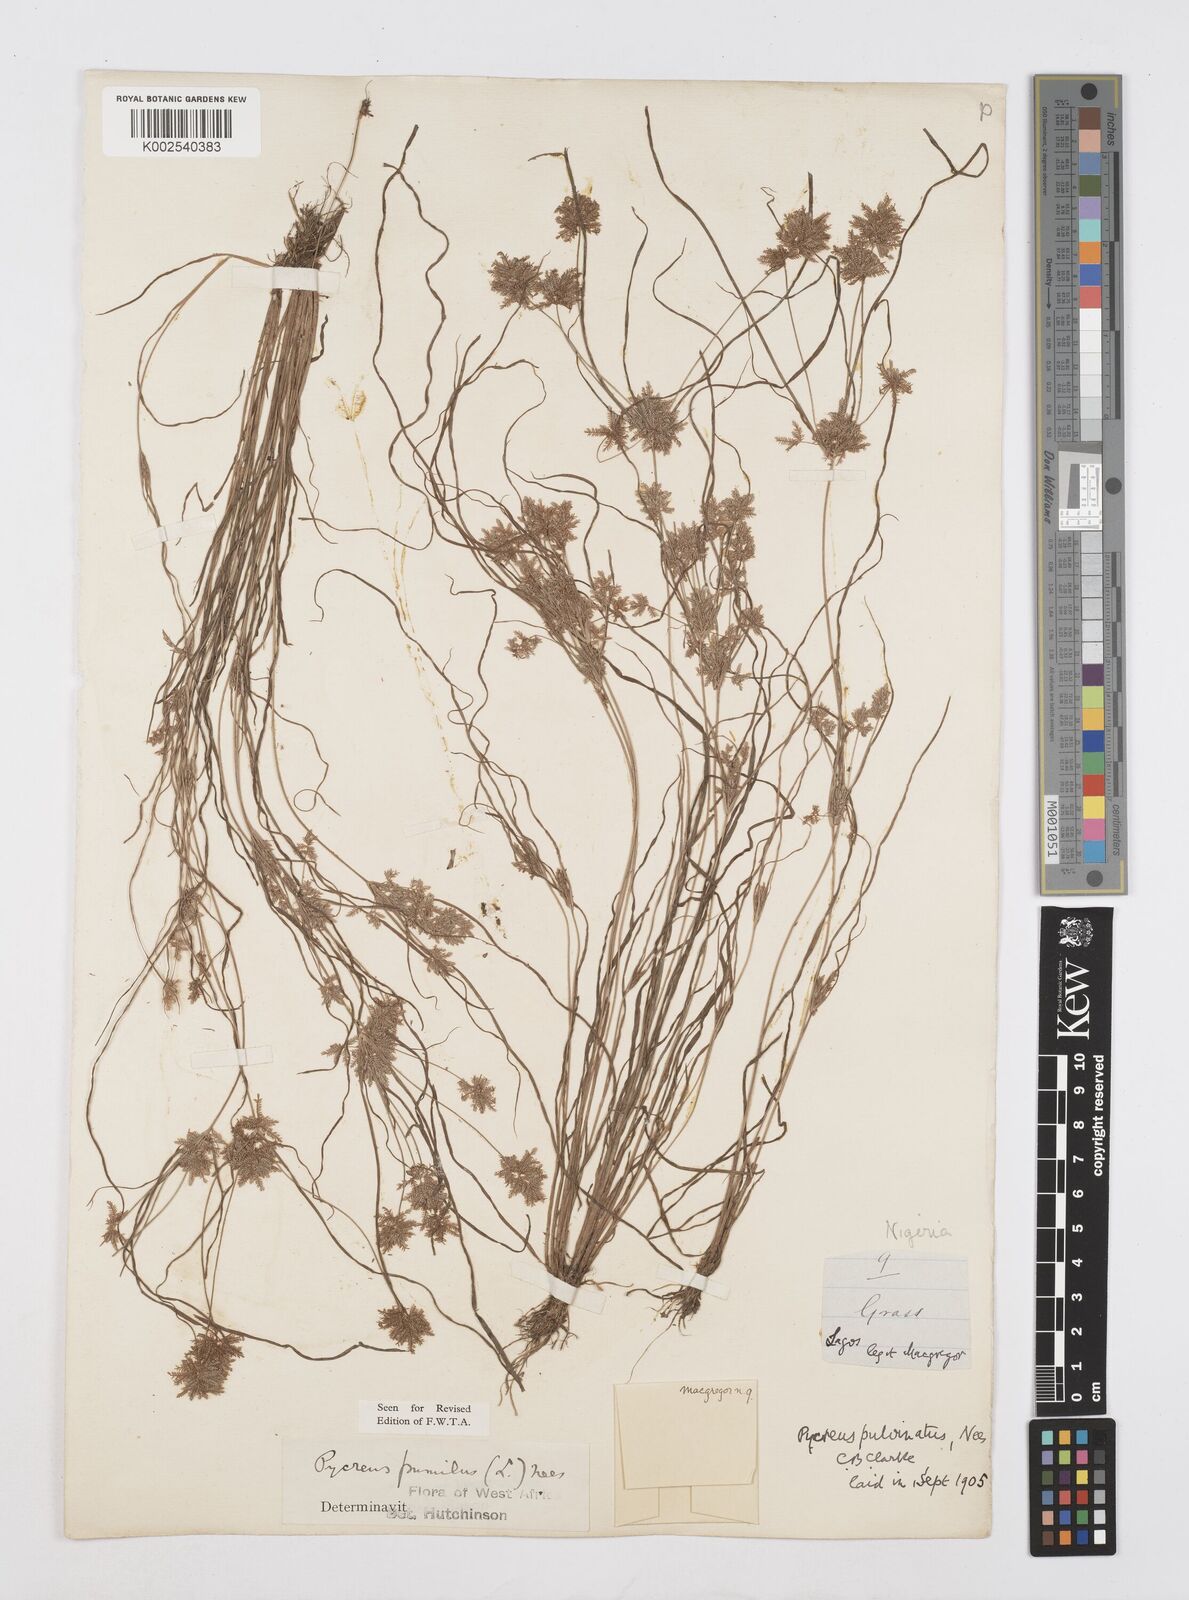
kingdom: Plantae
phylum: Tracheophyta
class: Liliopsida
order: Poales
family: Cyperaceae
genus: Cyperus
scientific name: Cyperus pumilus
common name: Low flatsedge
